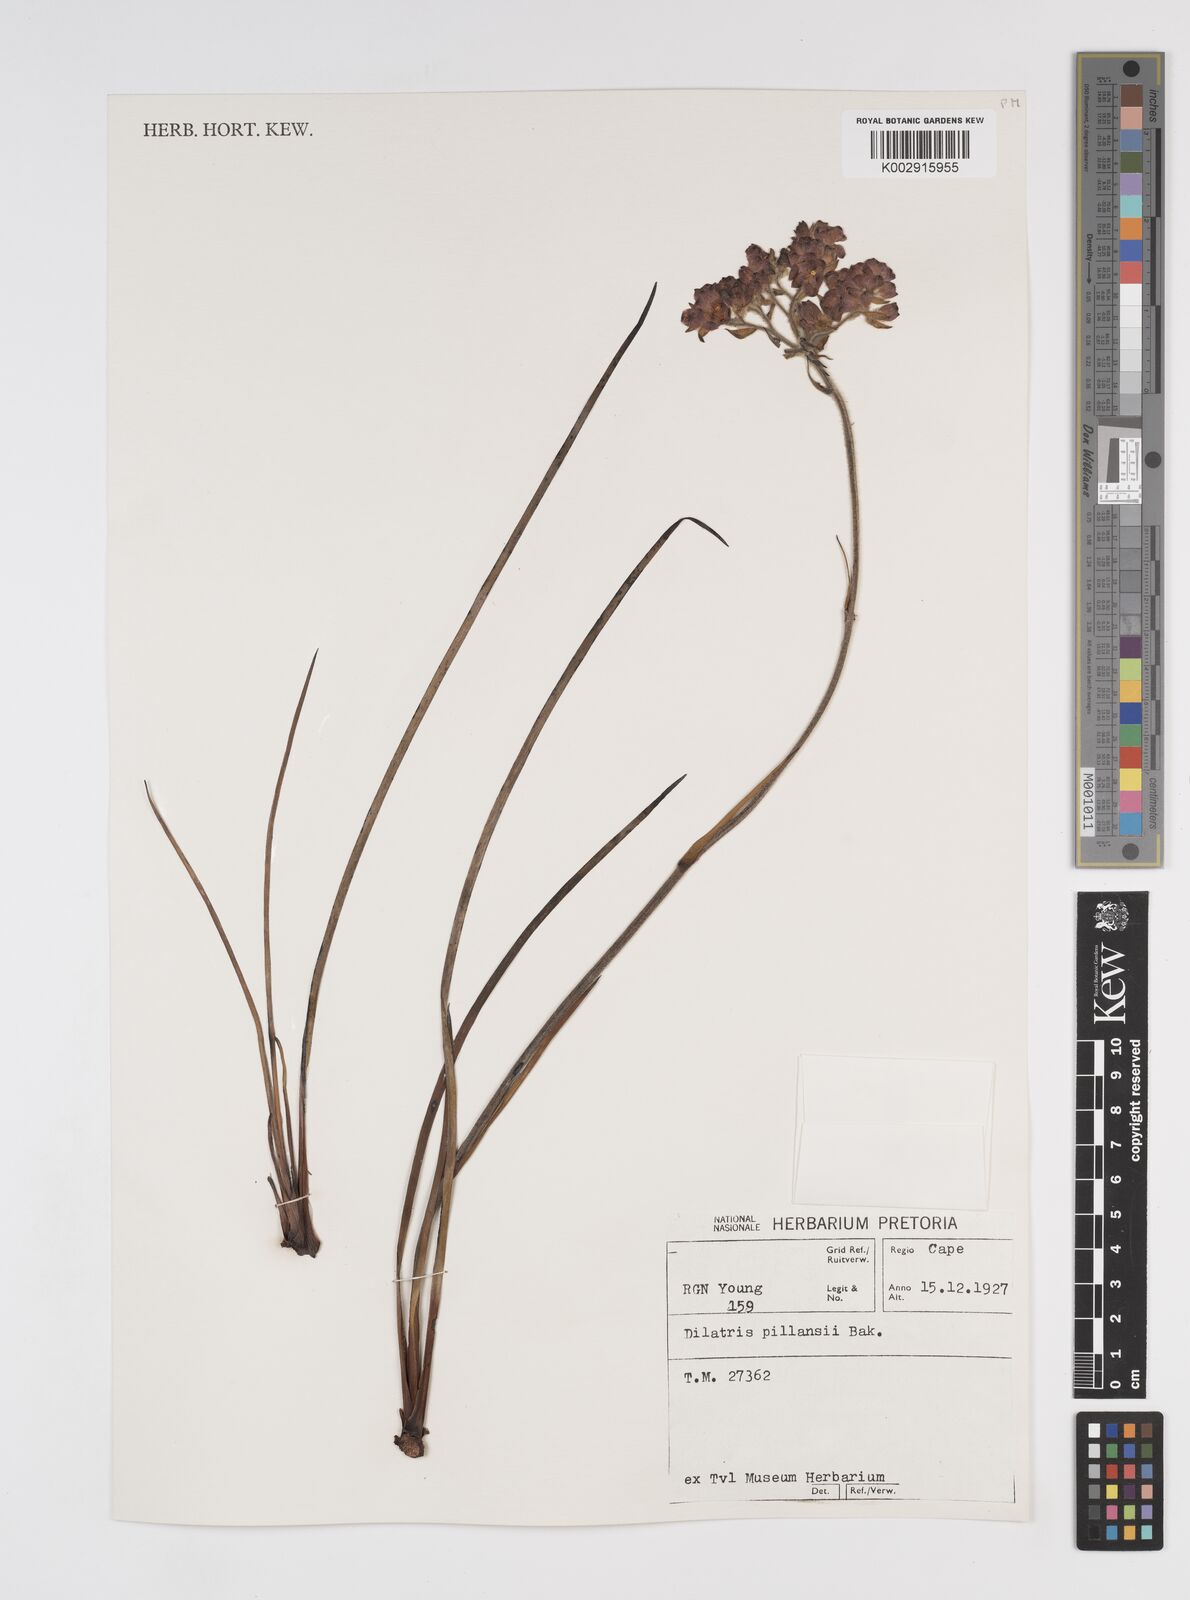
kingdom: Plantae
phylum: Tracheophyta
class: Liliopsida
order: Commelinales
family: Haemodoraceae
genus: Dilatris
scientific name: Dilatris pillansii
